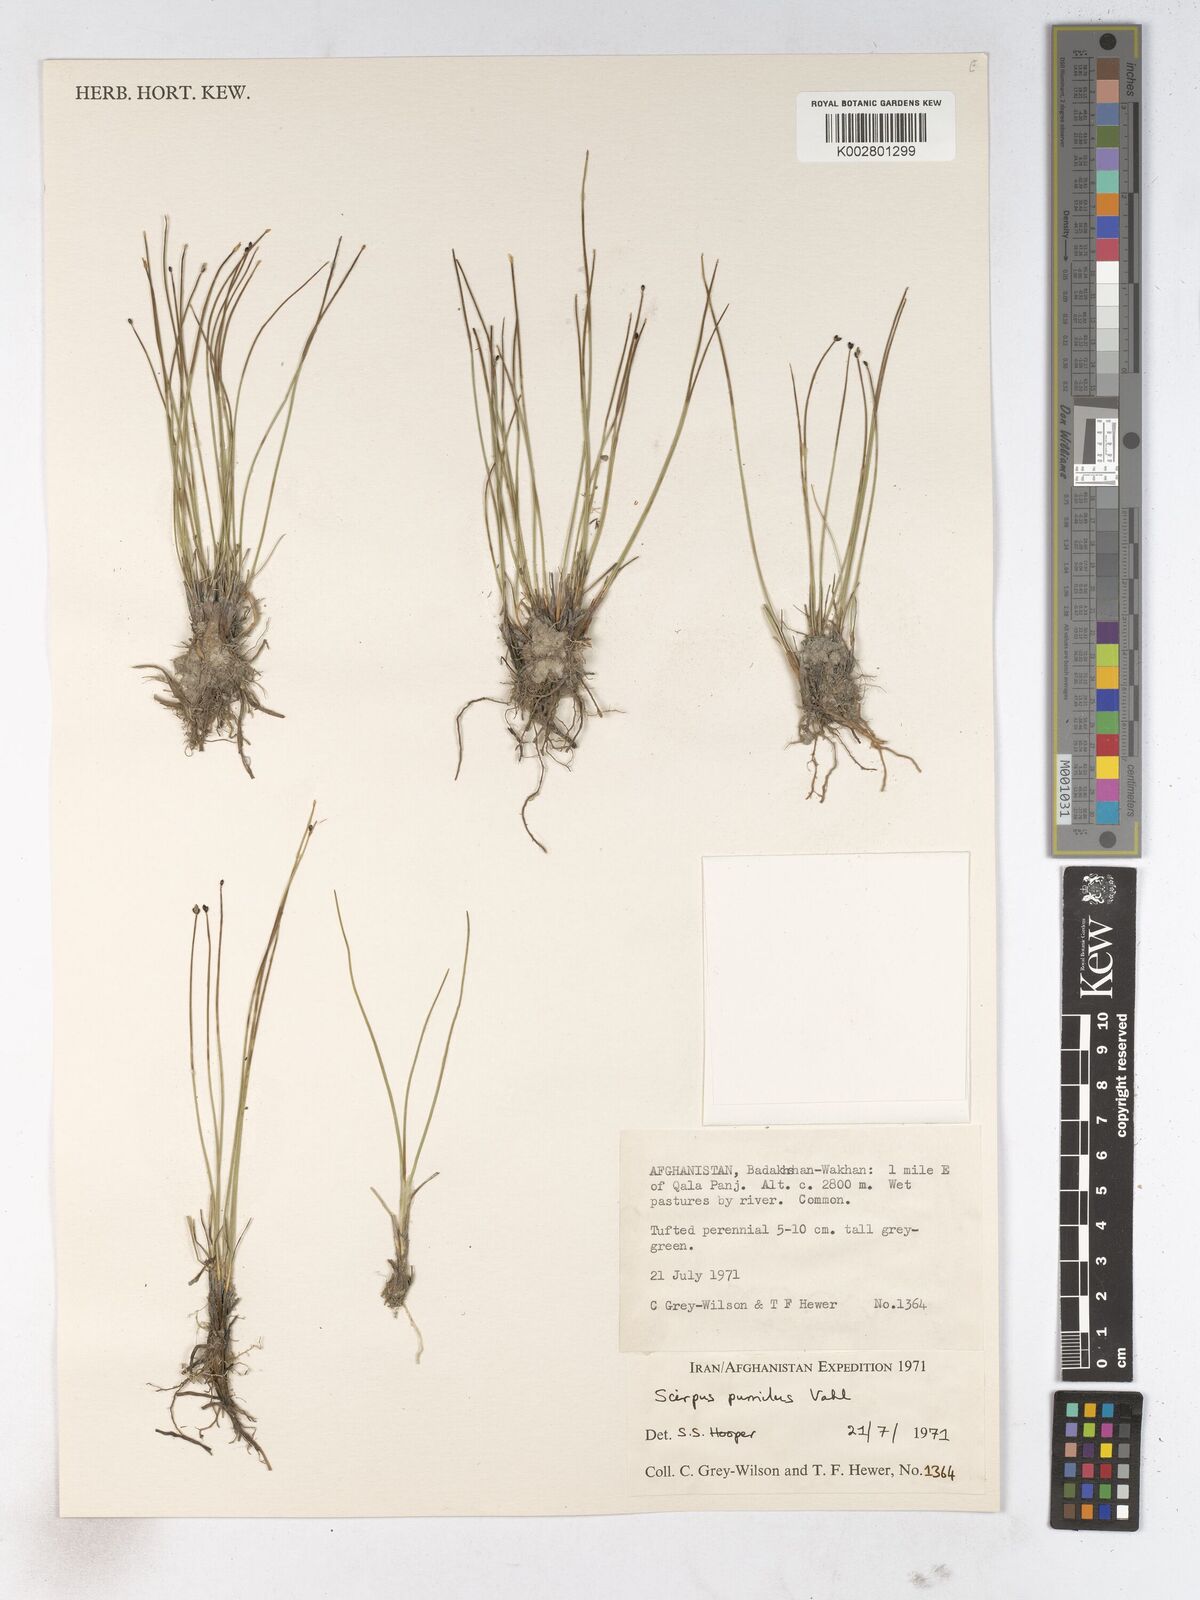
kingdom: Plantae
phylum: Tracheophyta
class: Liliopsida
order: Poales
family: Cyperaceae
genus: Trichophorum
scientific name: Trichophorum pumilum
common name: Rolland's bulrush
